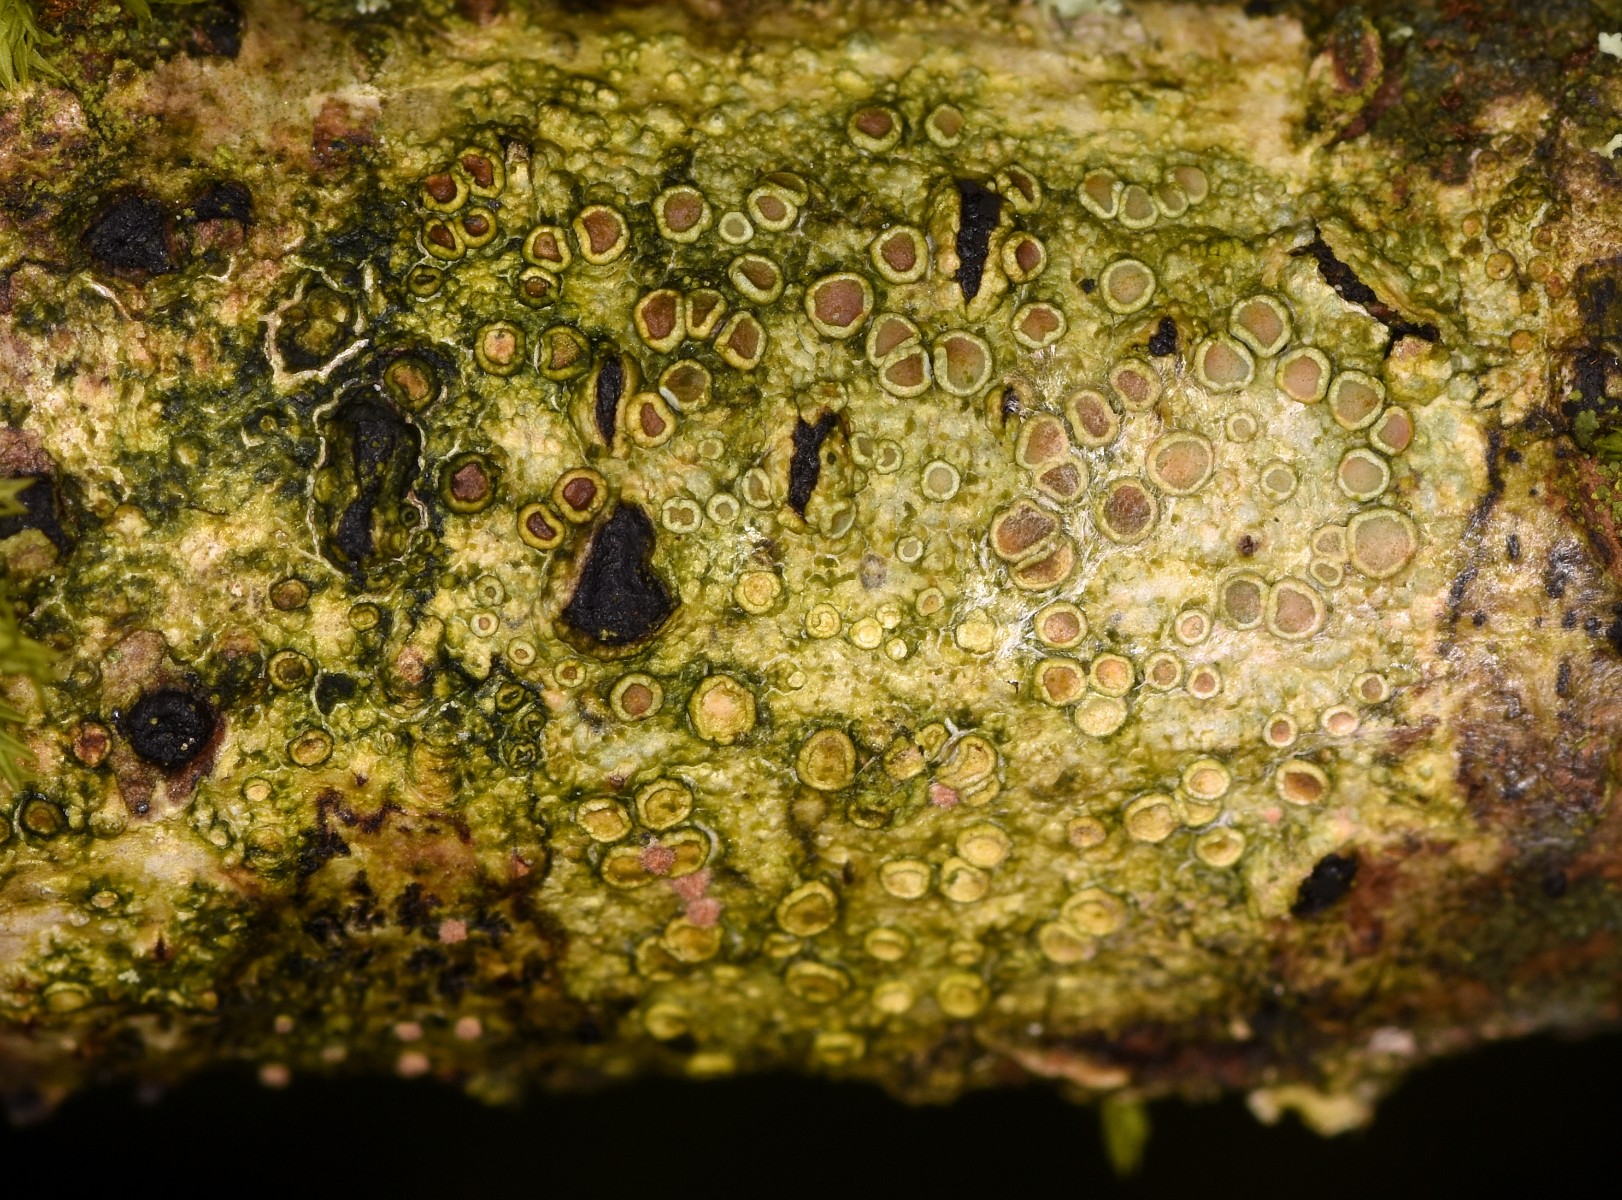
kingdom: Fungi
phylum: Ascomycota
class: Lecanoromycetes
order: Lecanorales
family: Lecanoraceae
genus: Lecanora
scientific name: Lecanora chlarotera
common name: brun kantskivelav
